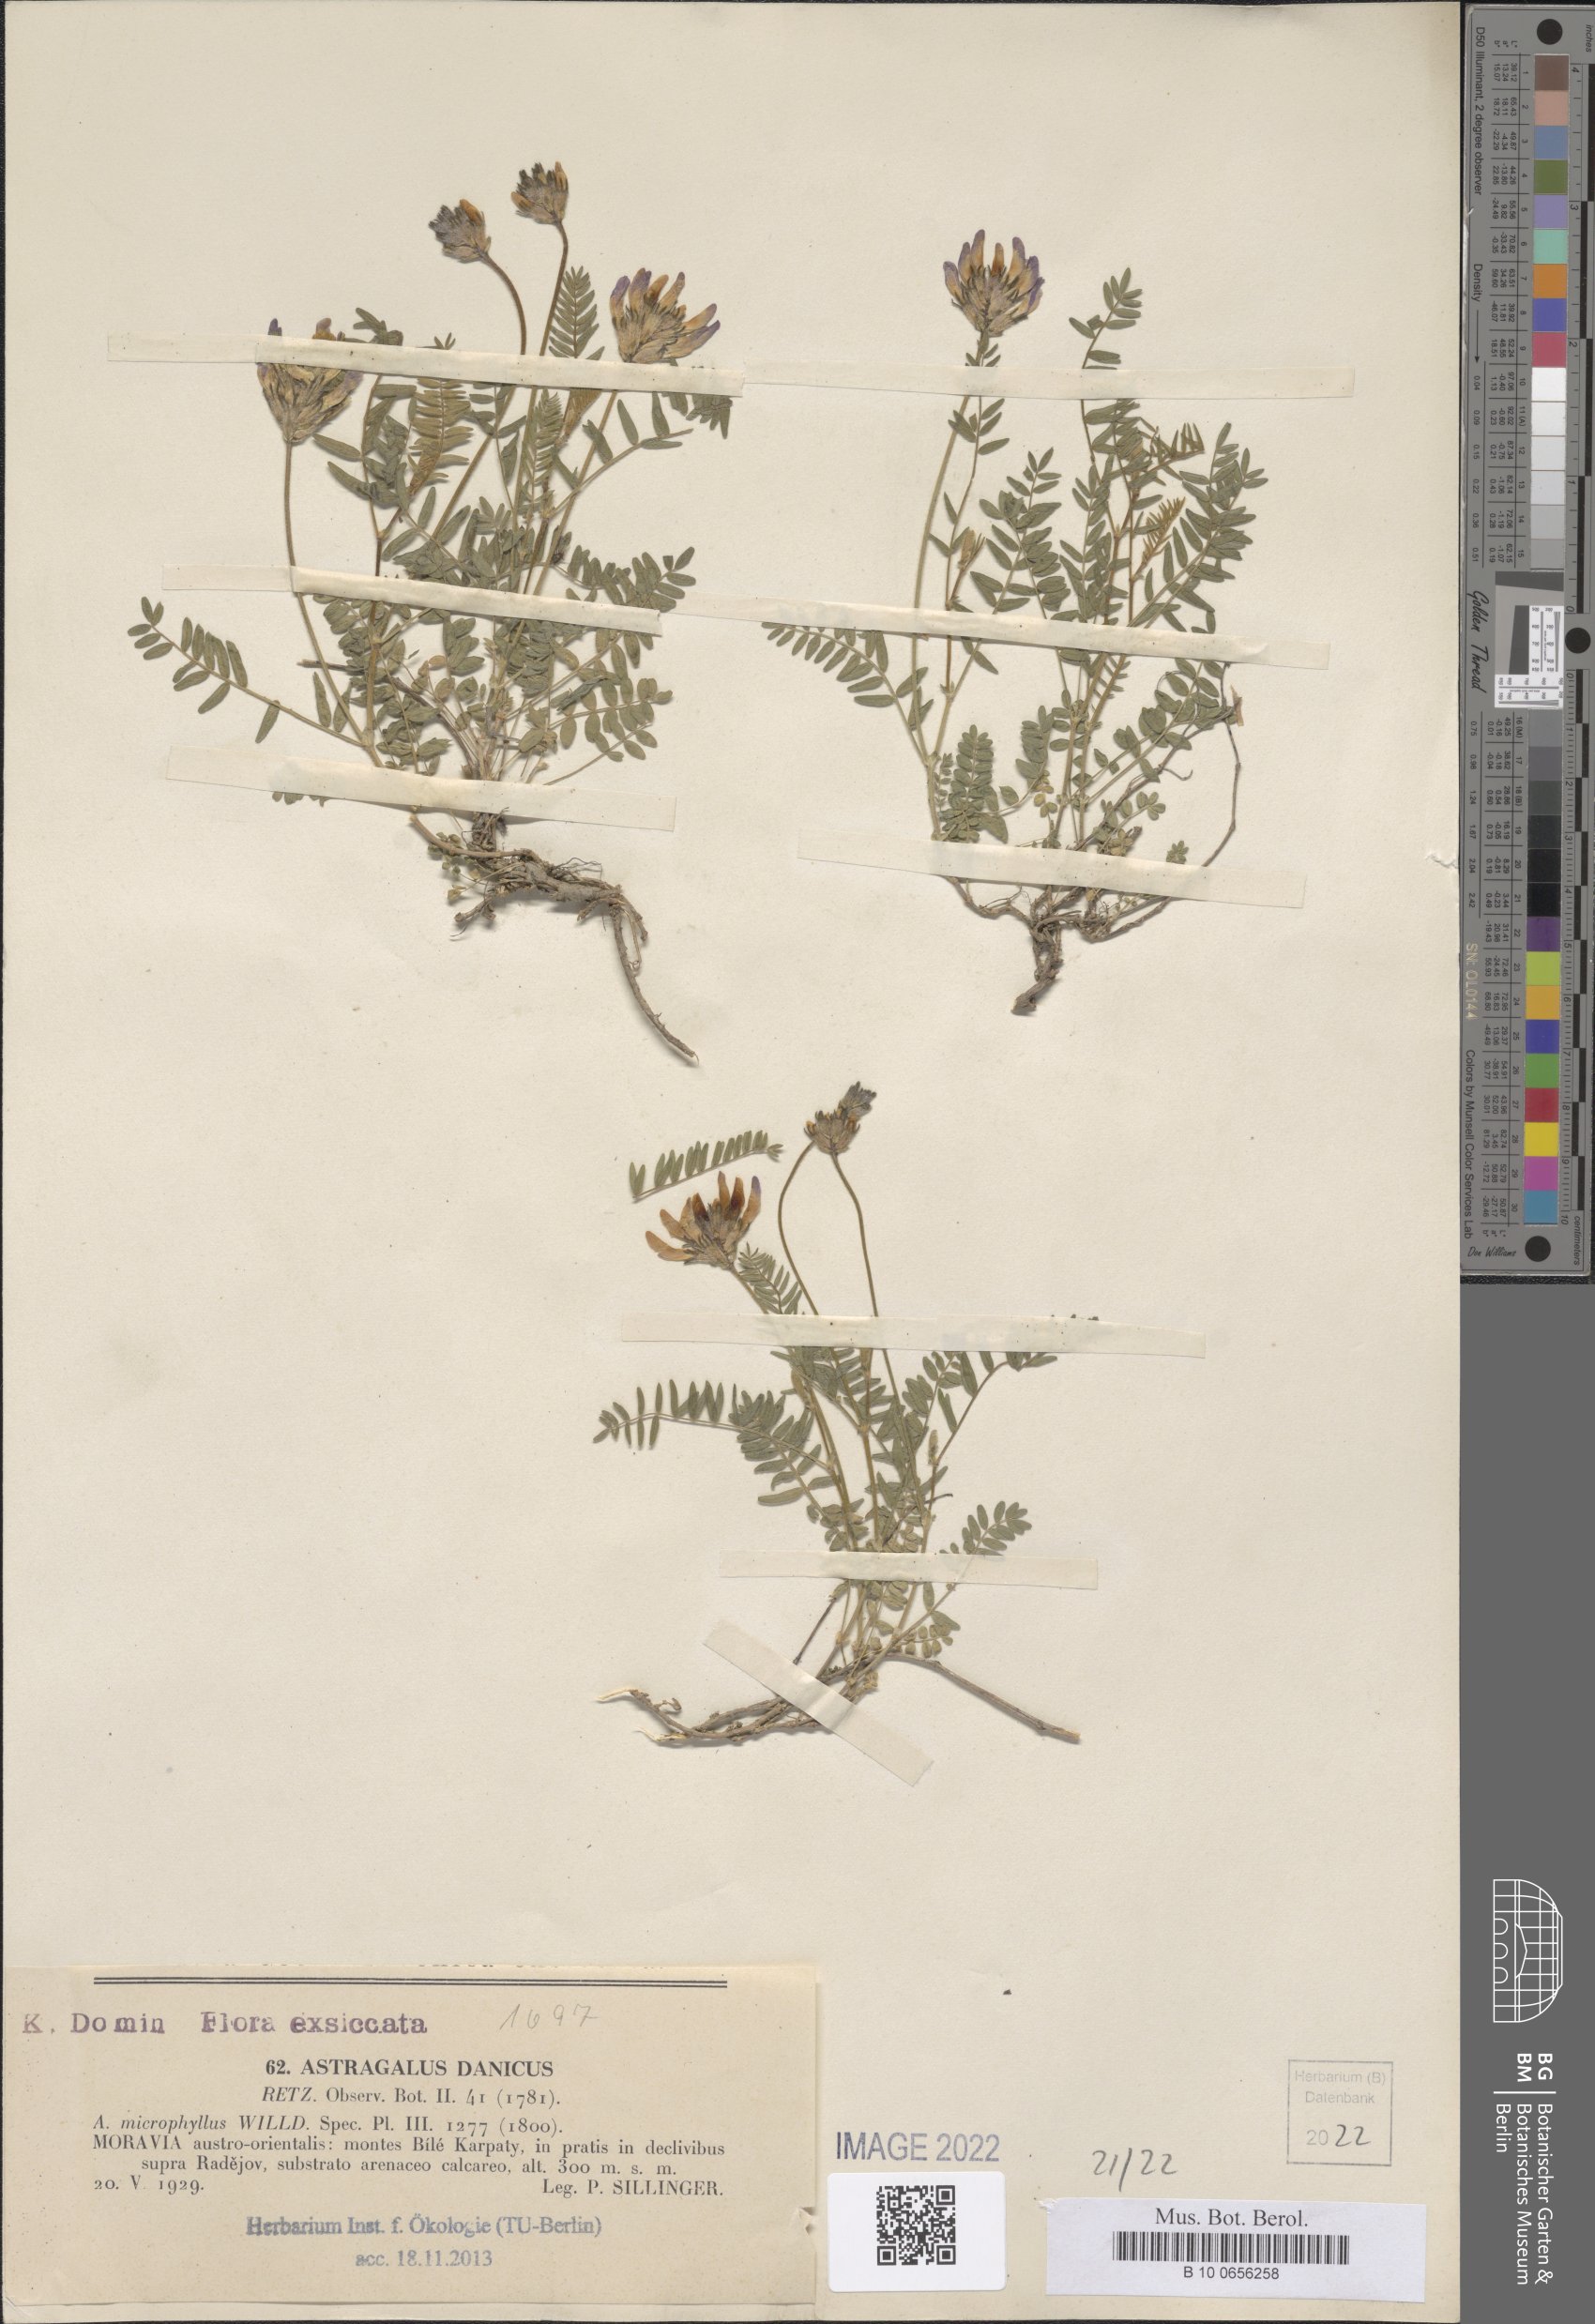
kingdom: Plantae
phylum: Tracheophyta
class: Magnoliopsida
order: Fabales
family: Fabaceae
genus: Astragalus
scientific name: Astragalus danicus
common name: Purple milk-vetch
